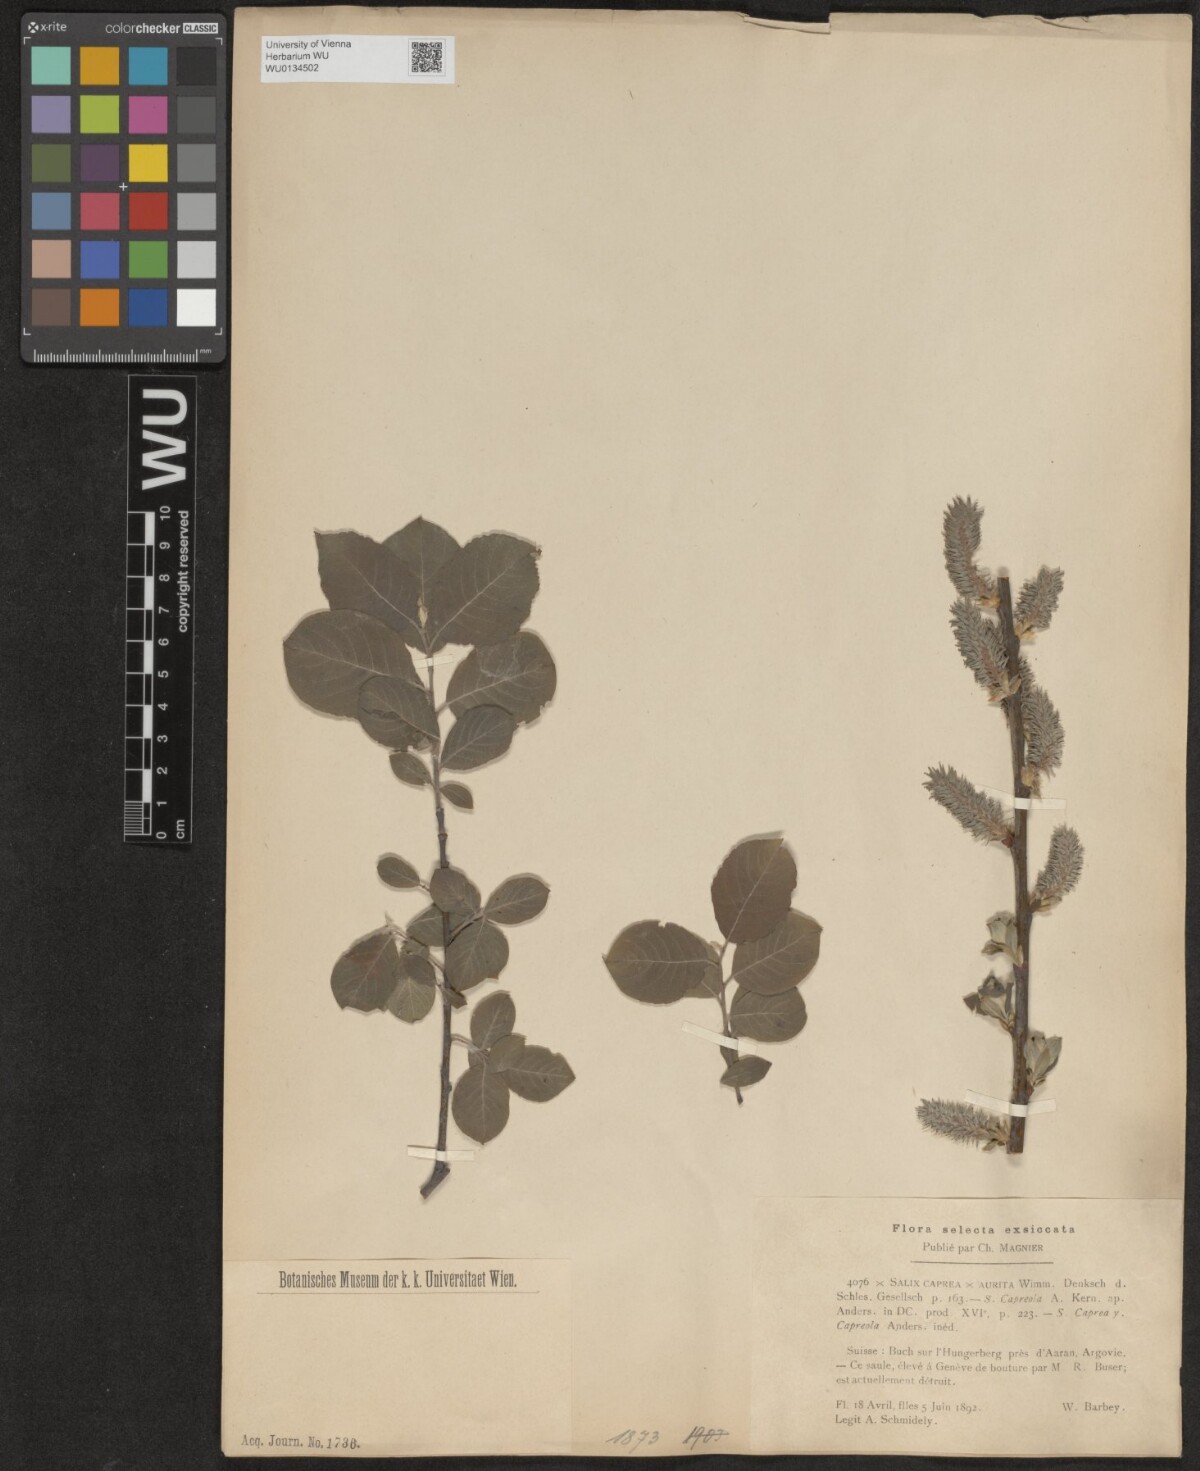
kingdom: Plantae
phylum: Tracheophyta
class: Magnoliopsida
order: Malpighiales
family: Salicaceae
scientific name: Salicaceae
